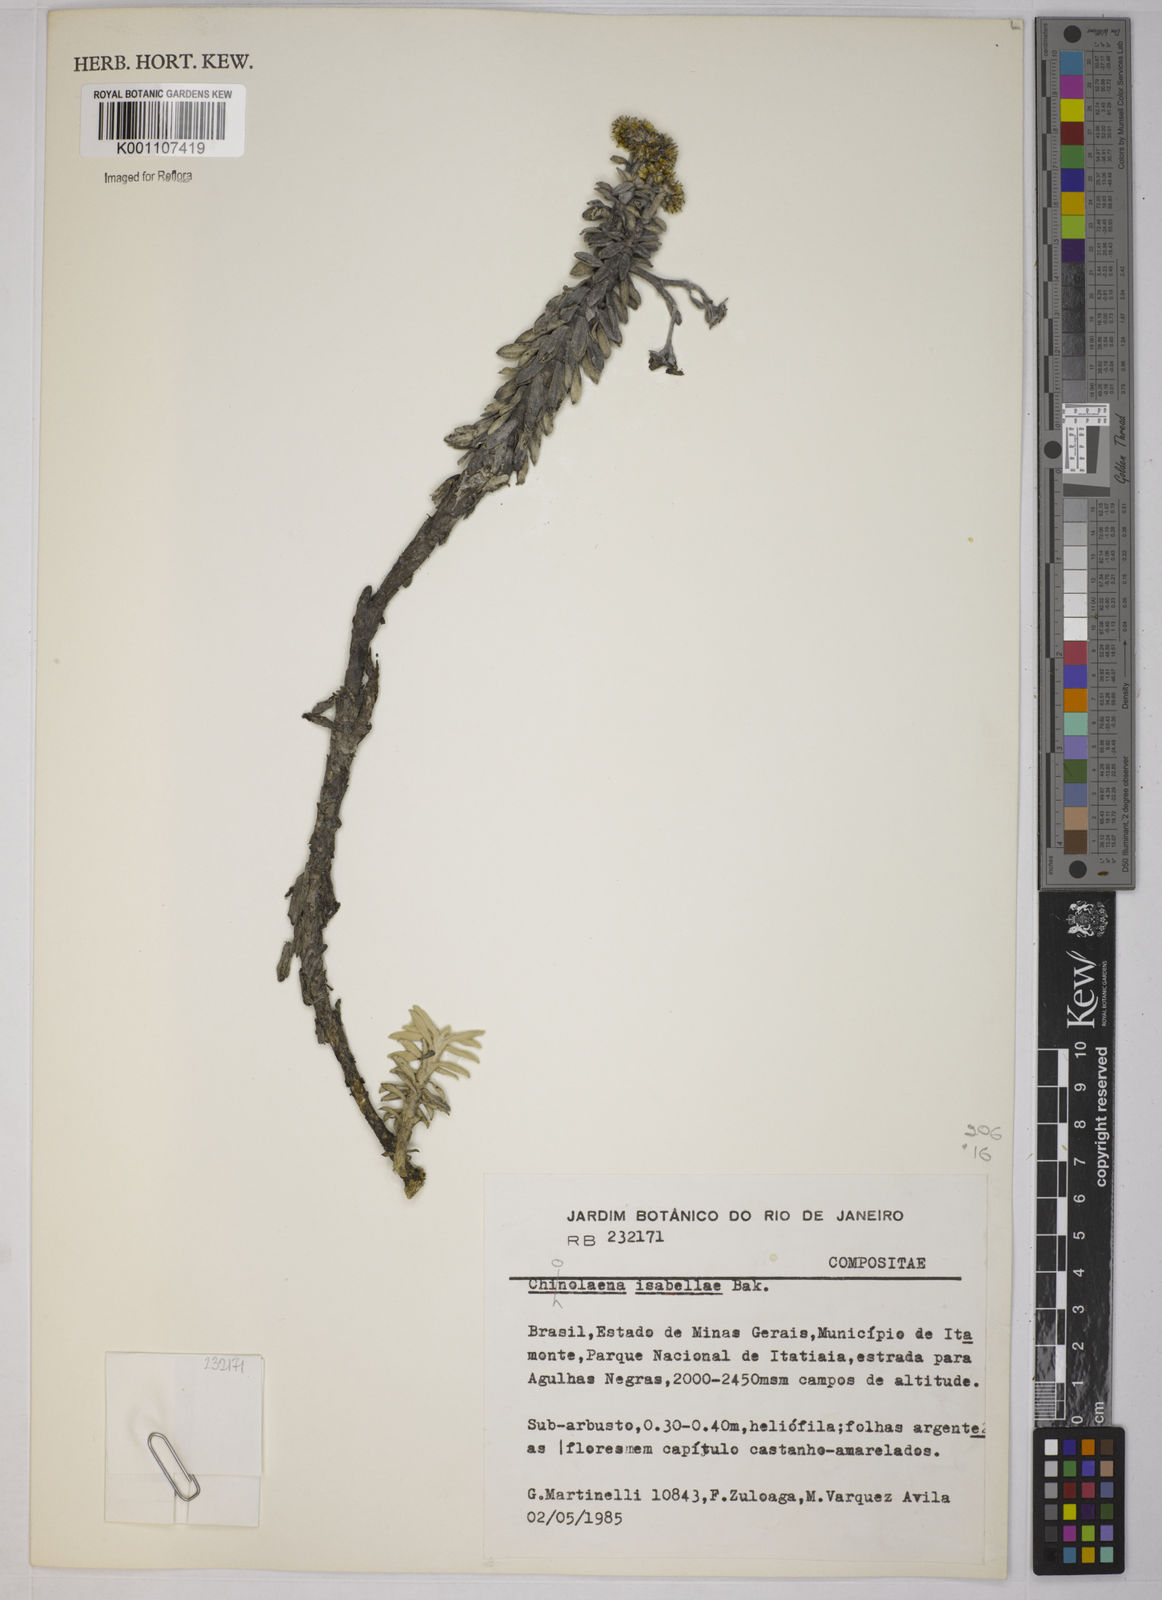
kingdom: Plantae
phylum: Tracheophyta
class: Magnoliopsida
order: Asterales
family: Asteraceae
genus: Chionolaena
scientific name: Chionolaena isabellae
